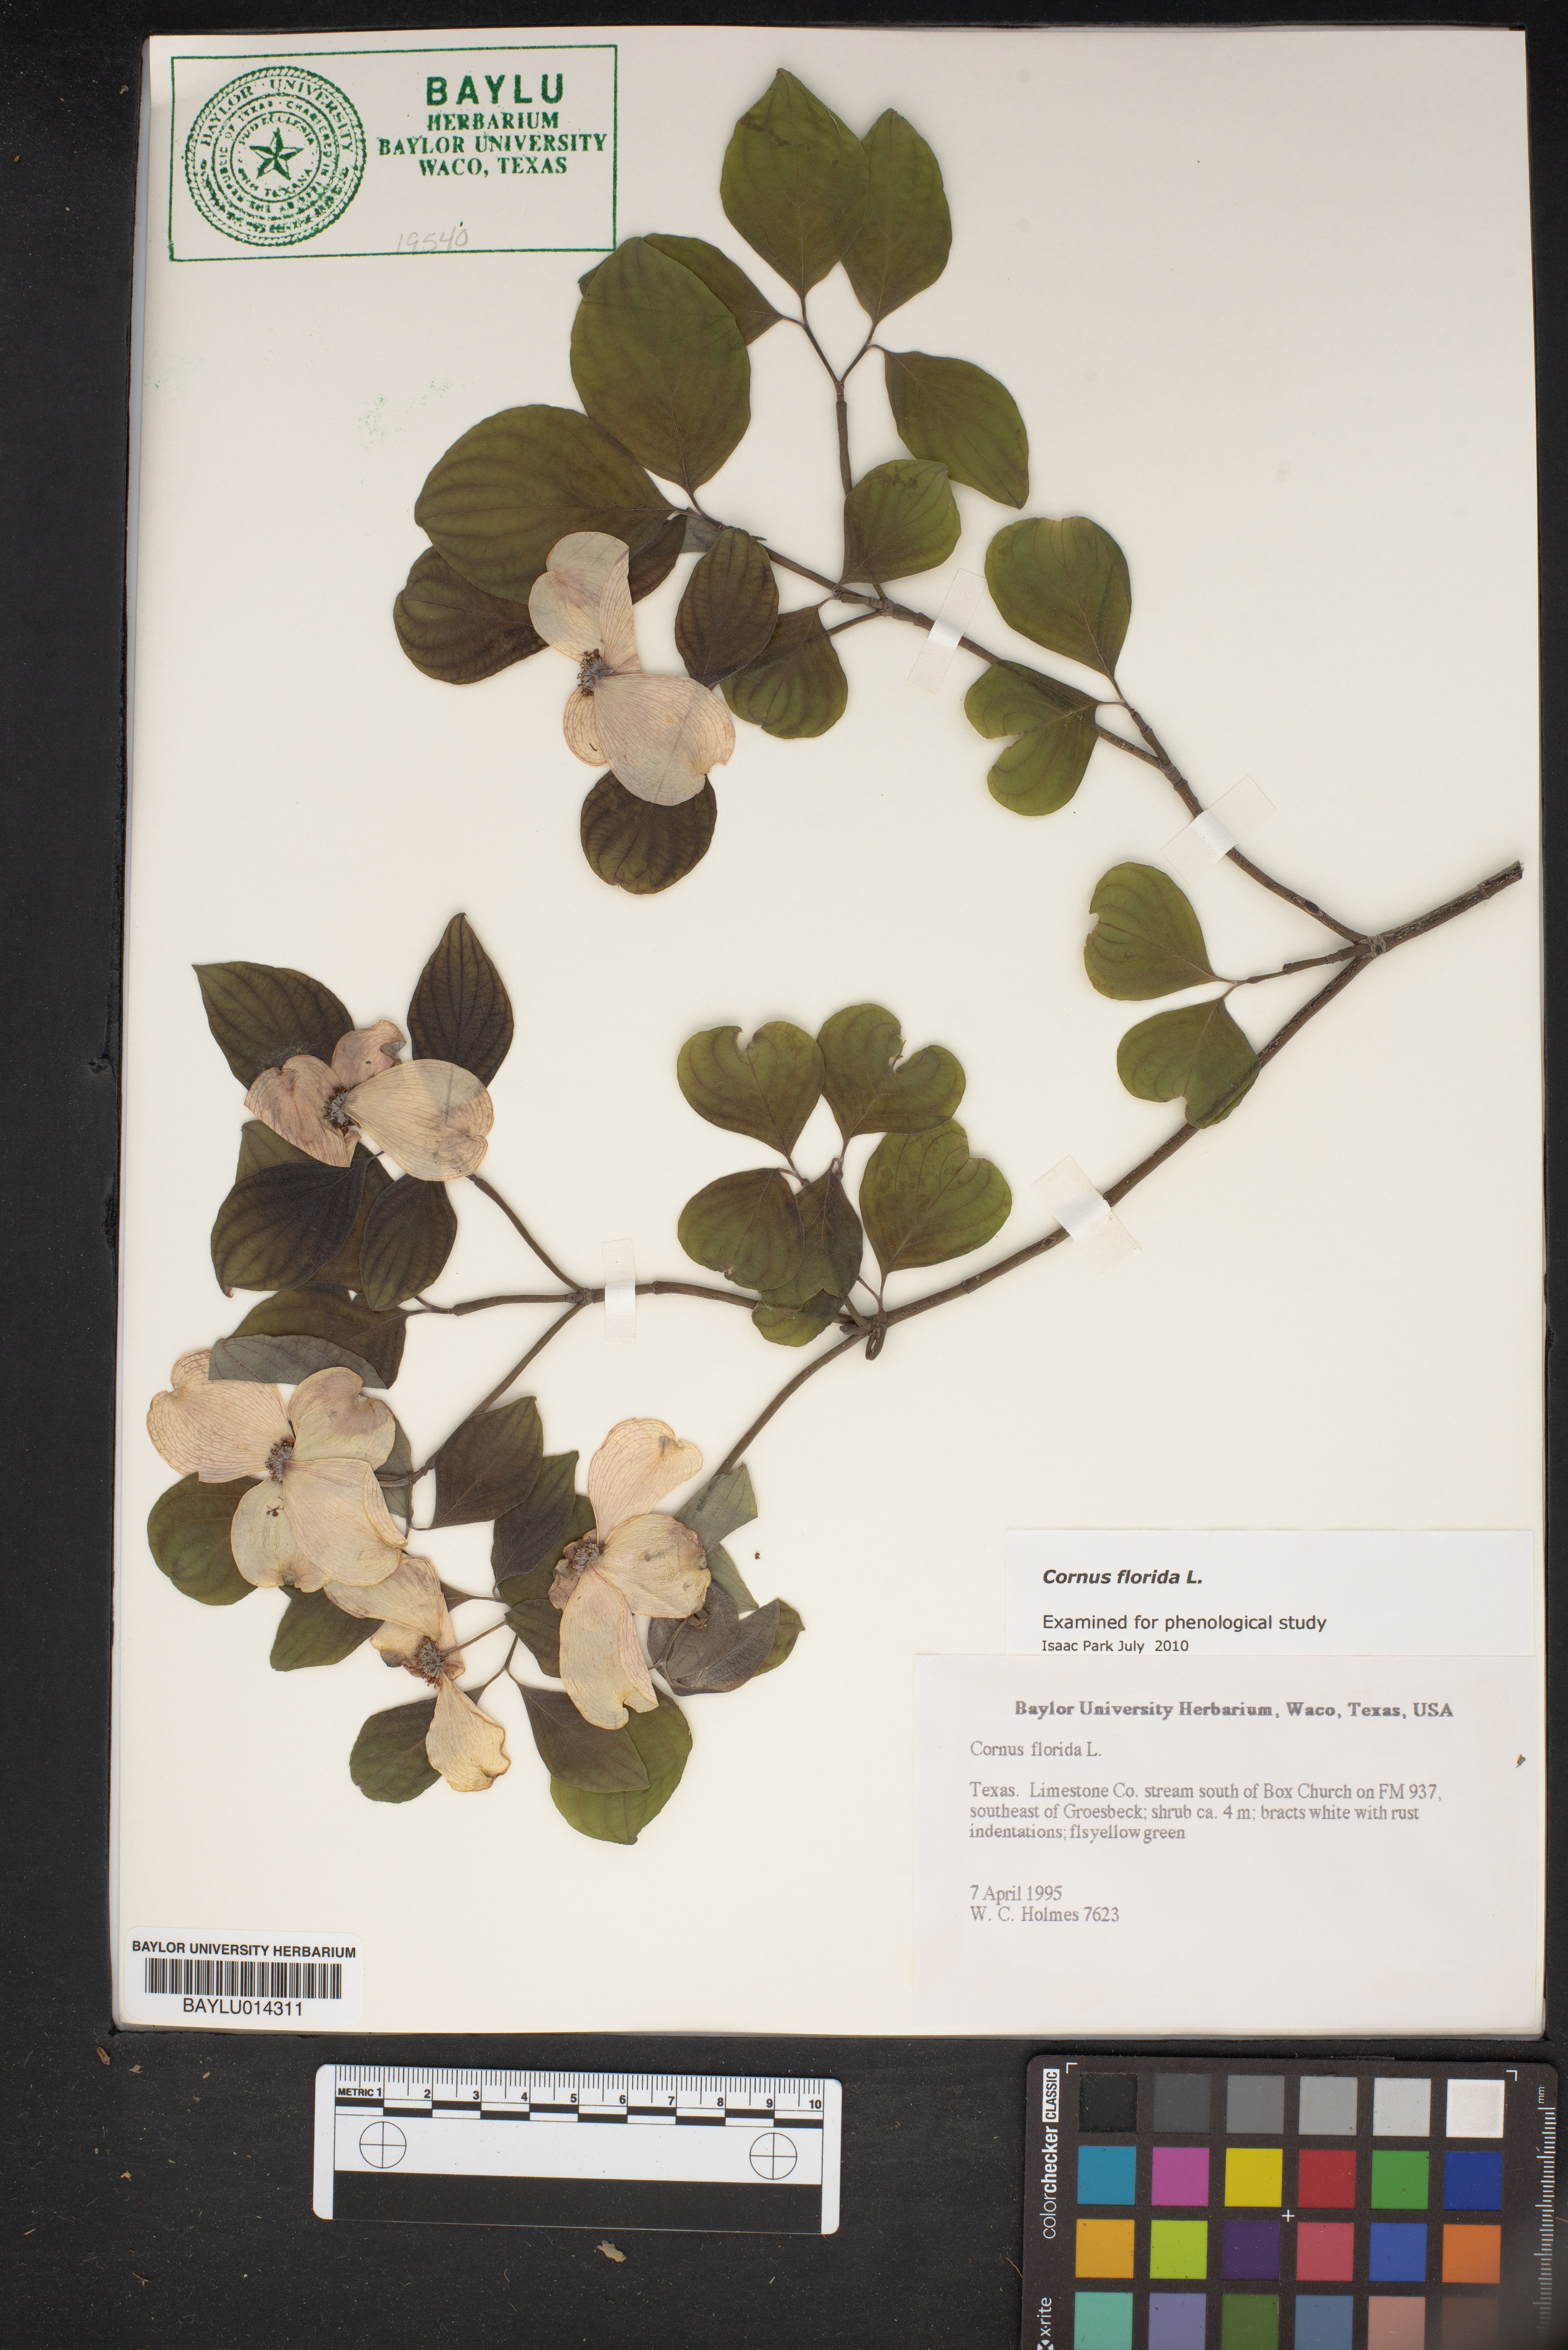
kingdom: Plantae
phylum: Tracheophyta
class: Magnoliopsida
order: Cornales
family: Cornaceae
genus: Cornus
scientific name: Cornus florida
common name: Flowering dogwood
